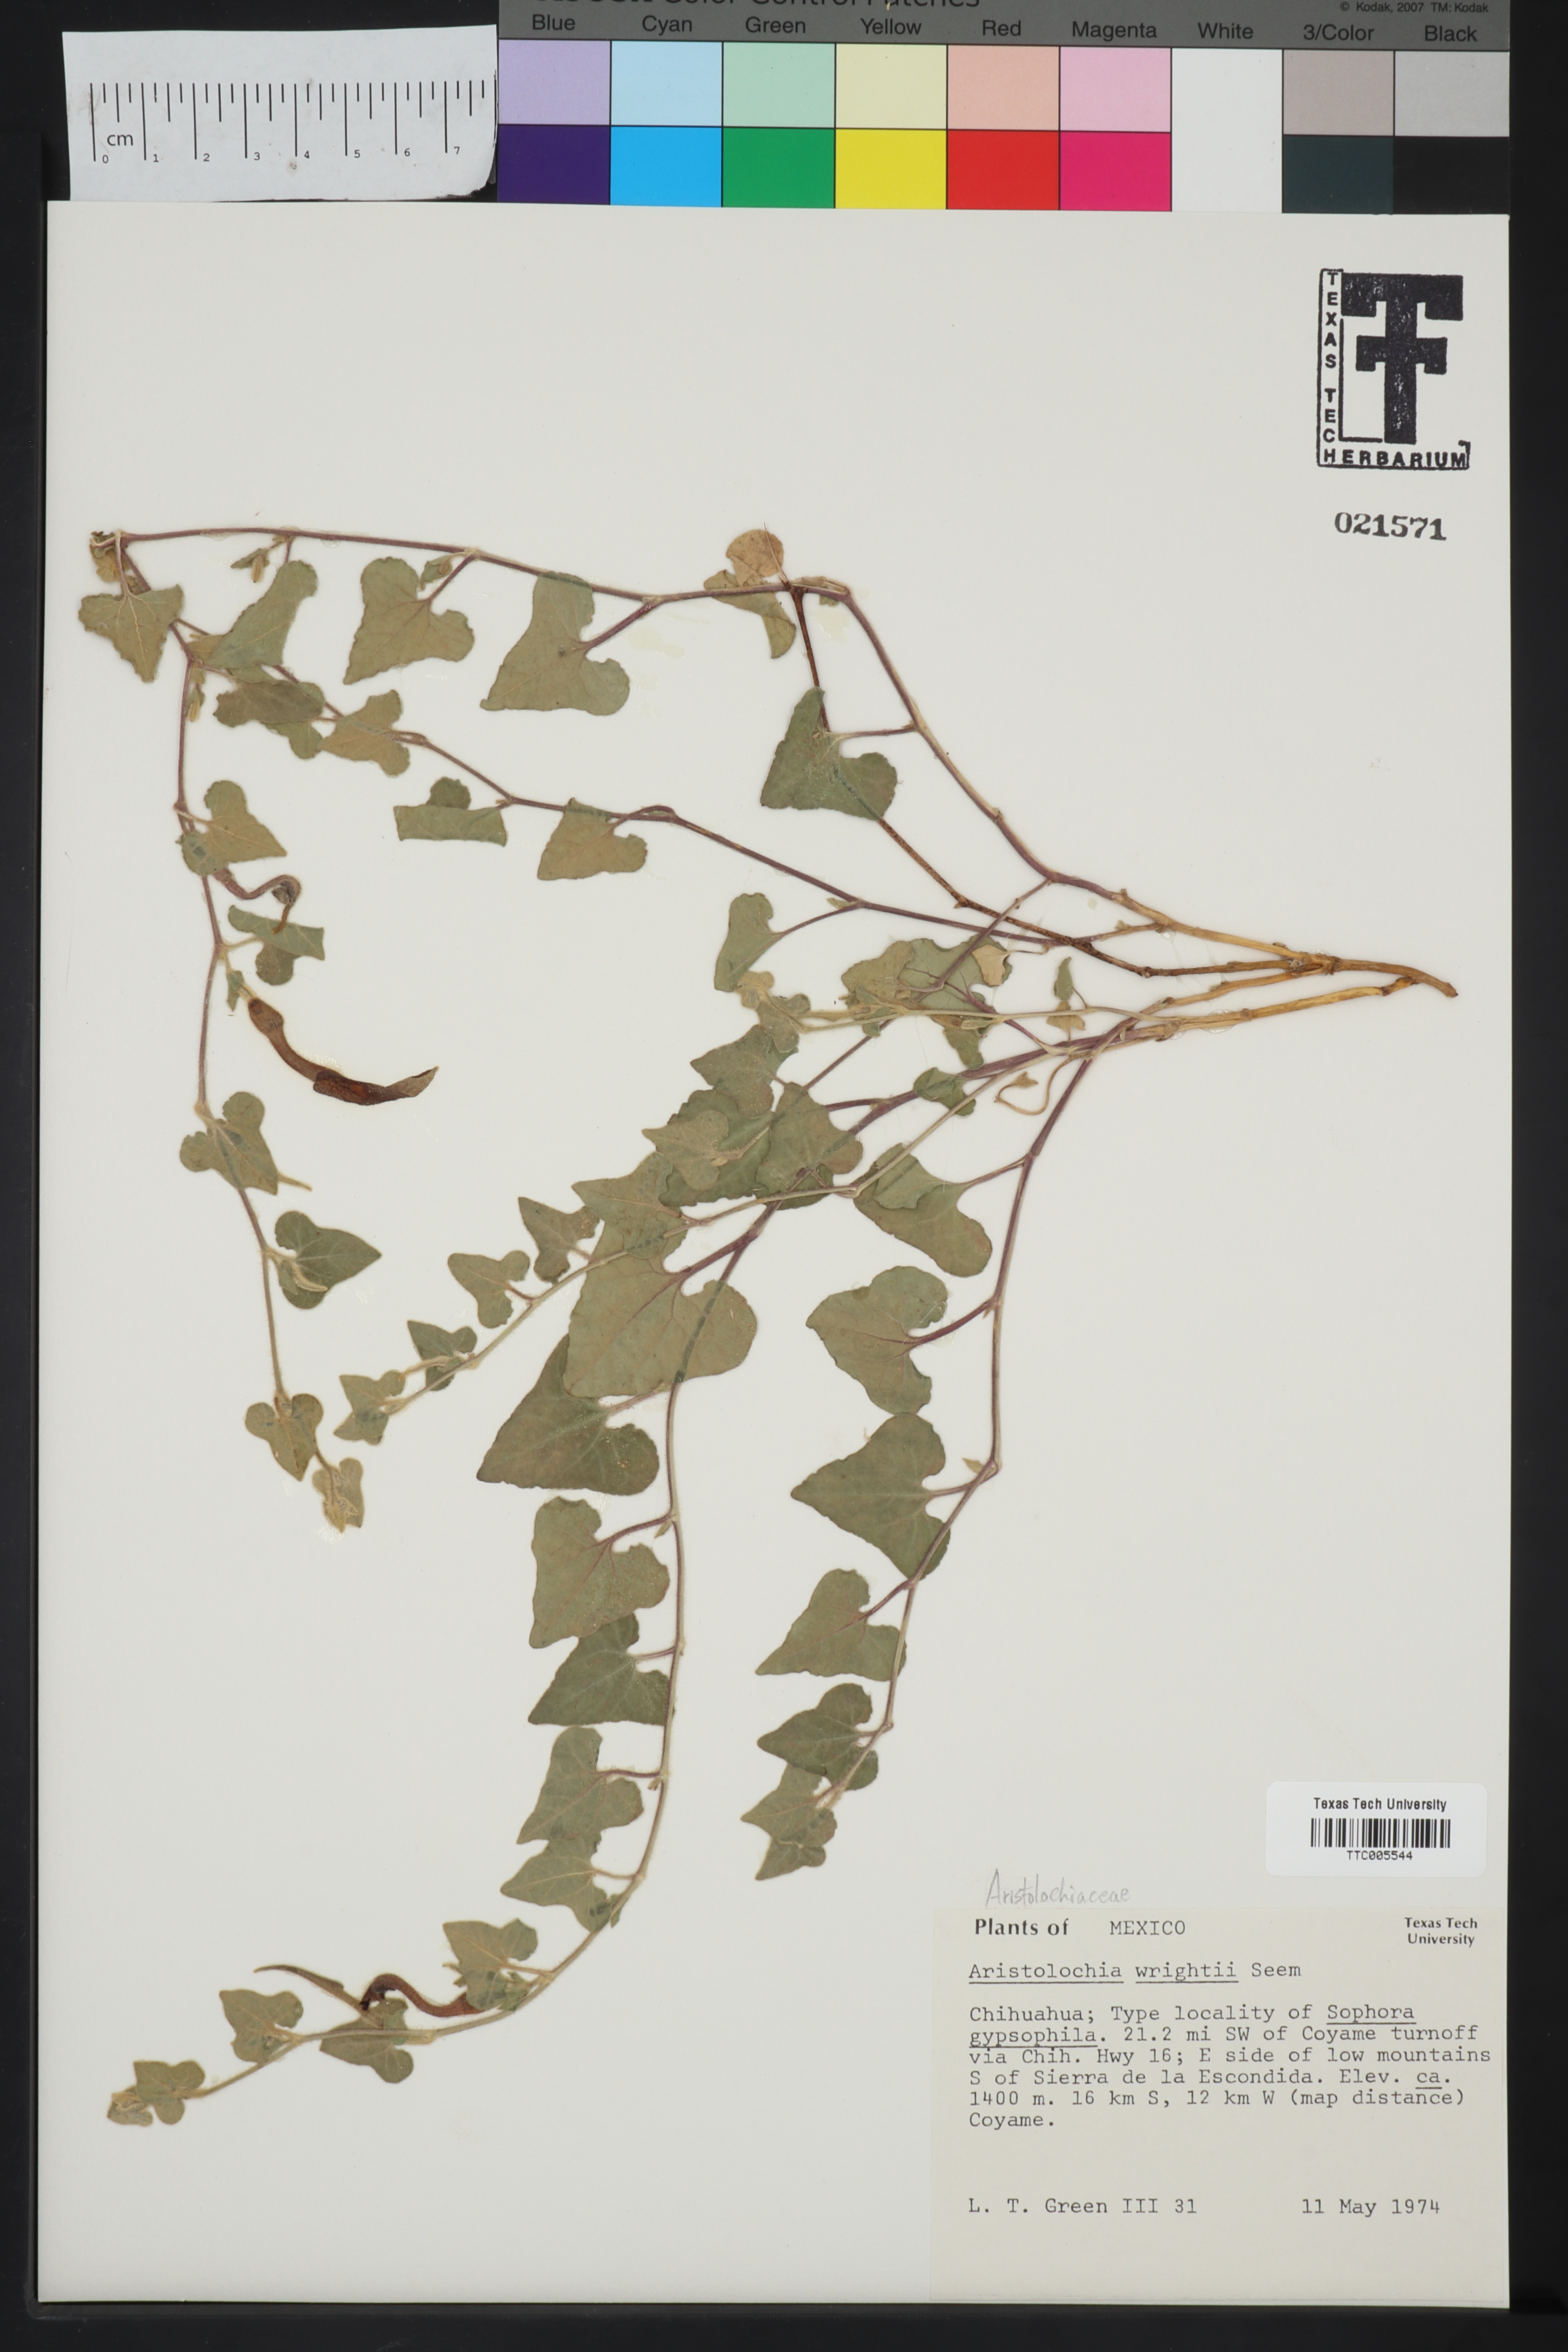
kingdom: Plantae
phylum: Tracheophyta
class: Magnoliopsida
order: Piperales
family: Aristolochiaceae
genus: Aristolochia
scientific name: Aristolochia wrightii
